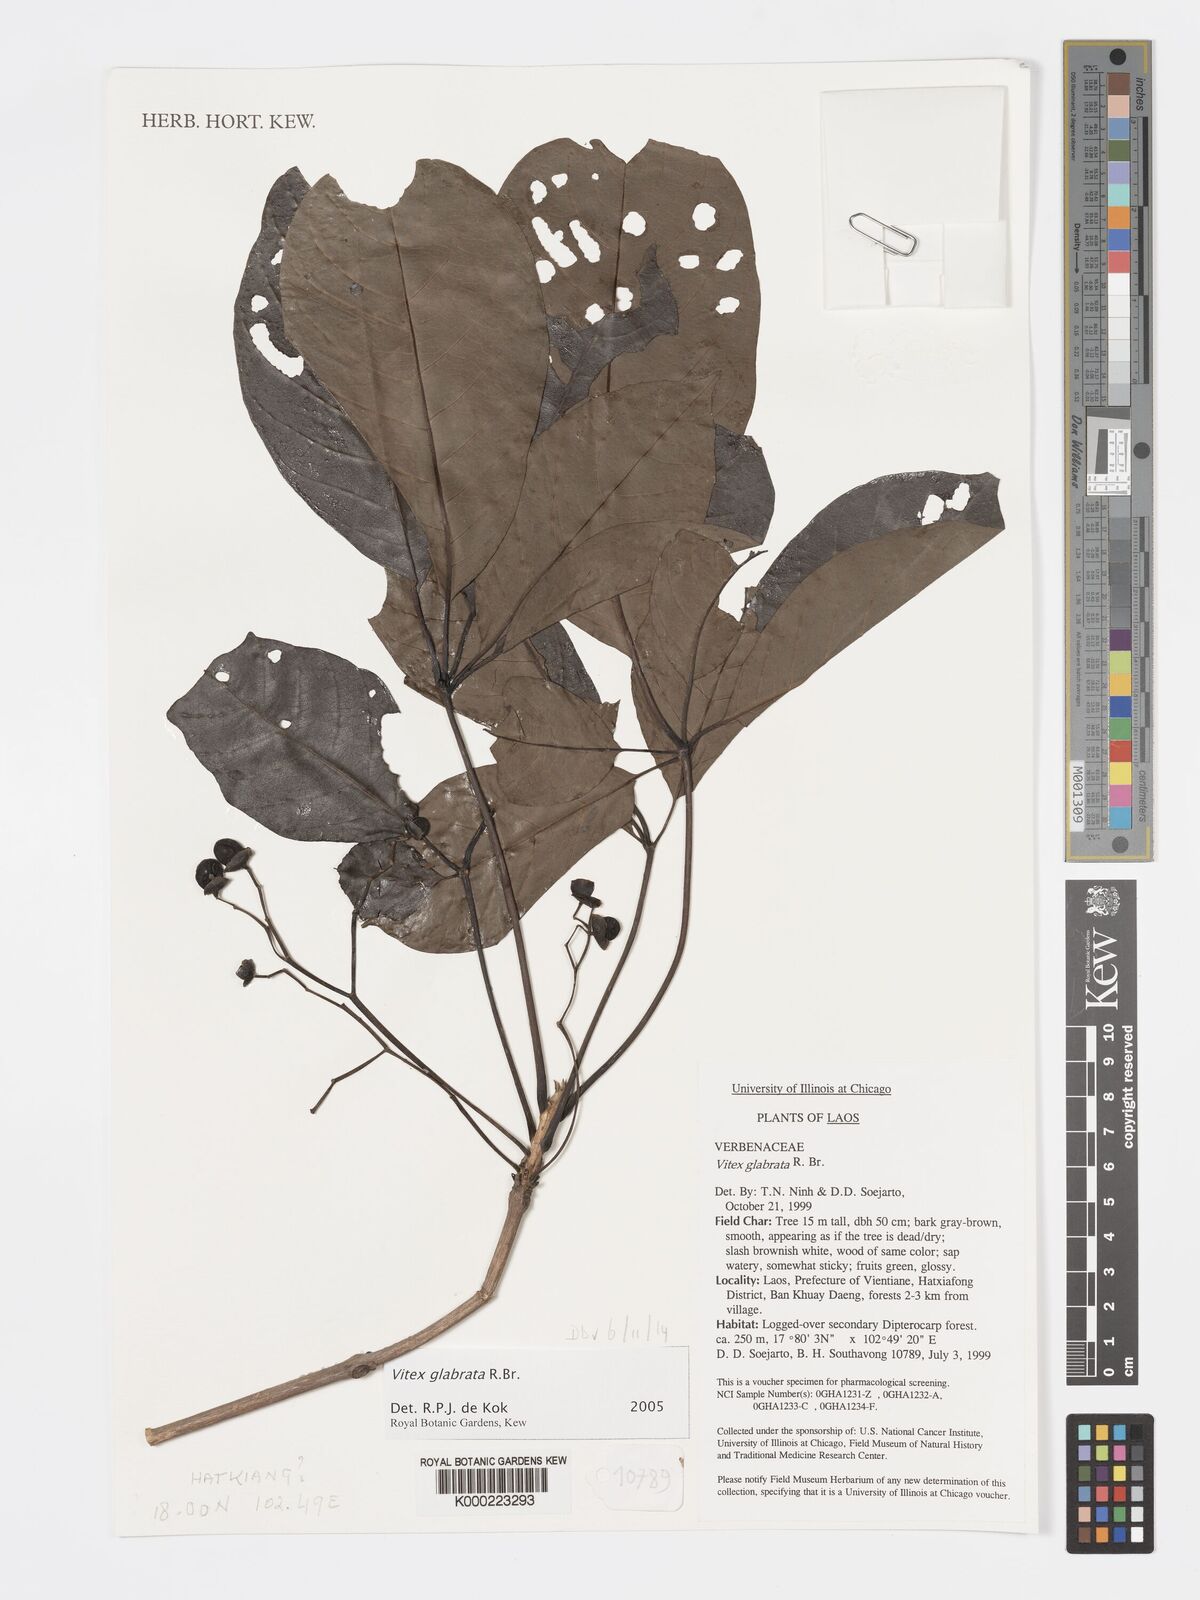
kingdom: Plantae
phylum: Tracheophyta
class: Magnoliopsida
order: Lamiales
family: Lamiaceae
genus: Vitex
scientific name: Vitex glabrata
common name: Smooth chastetree
